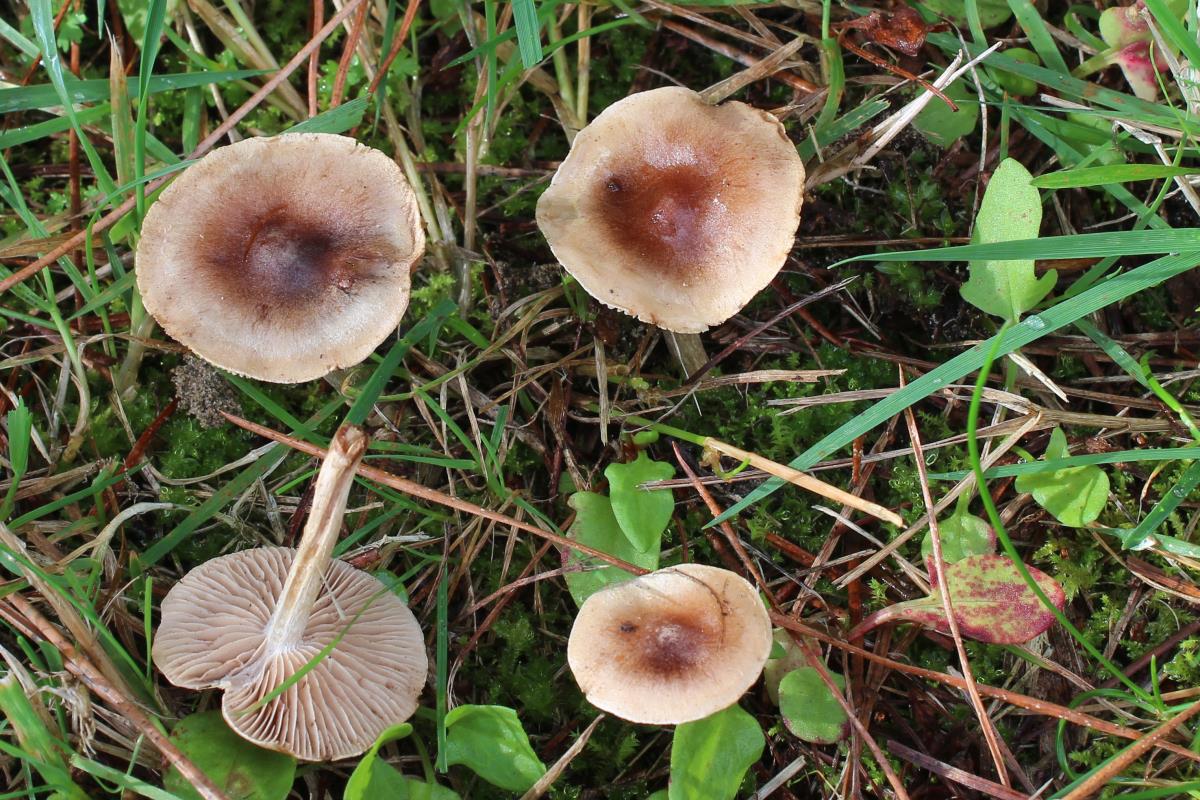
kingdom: Fungi
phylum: Basidiomycota
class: Agaricomycetes
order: Agaricales
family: Hymenogastraceae
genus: Hebeloma
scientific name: Hebeloma mesophaeum
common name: Veiled poisonpie
